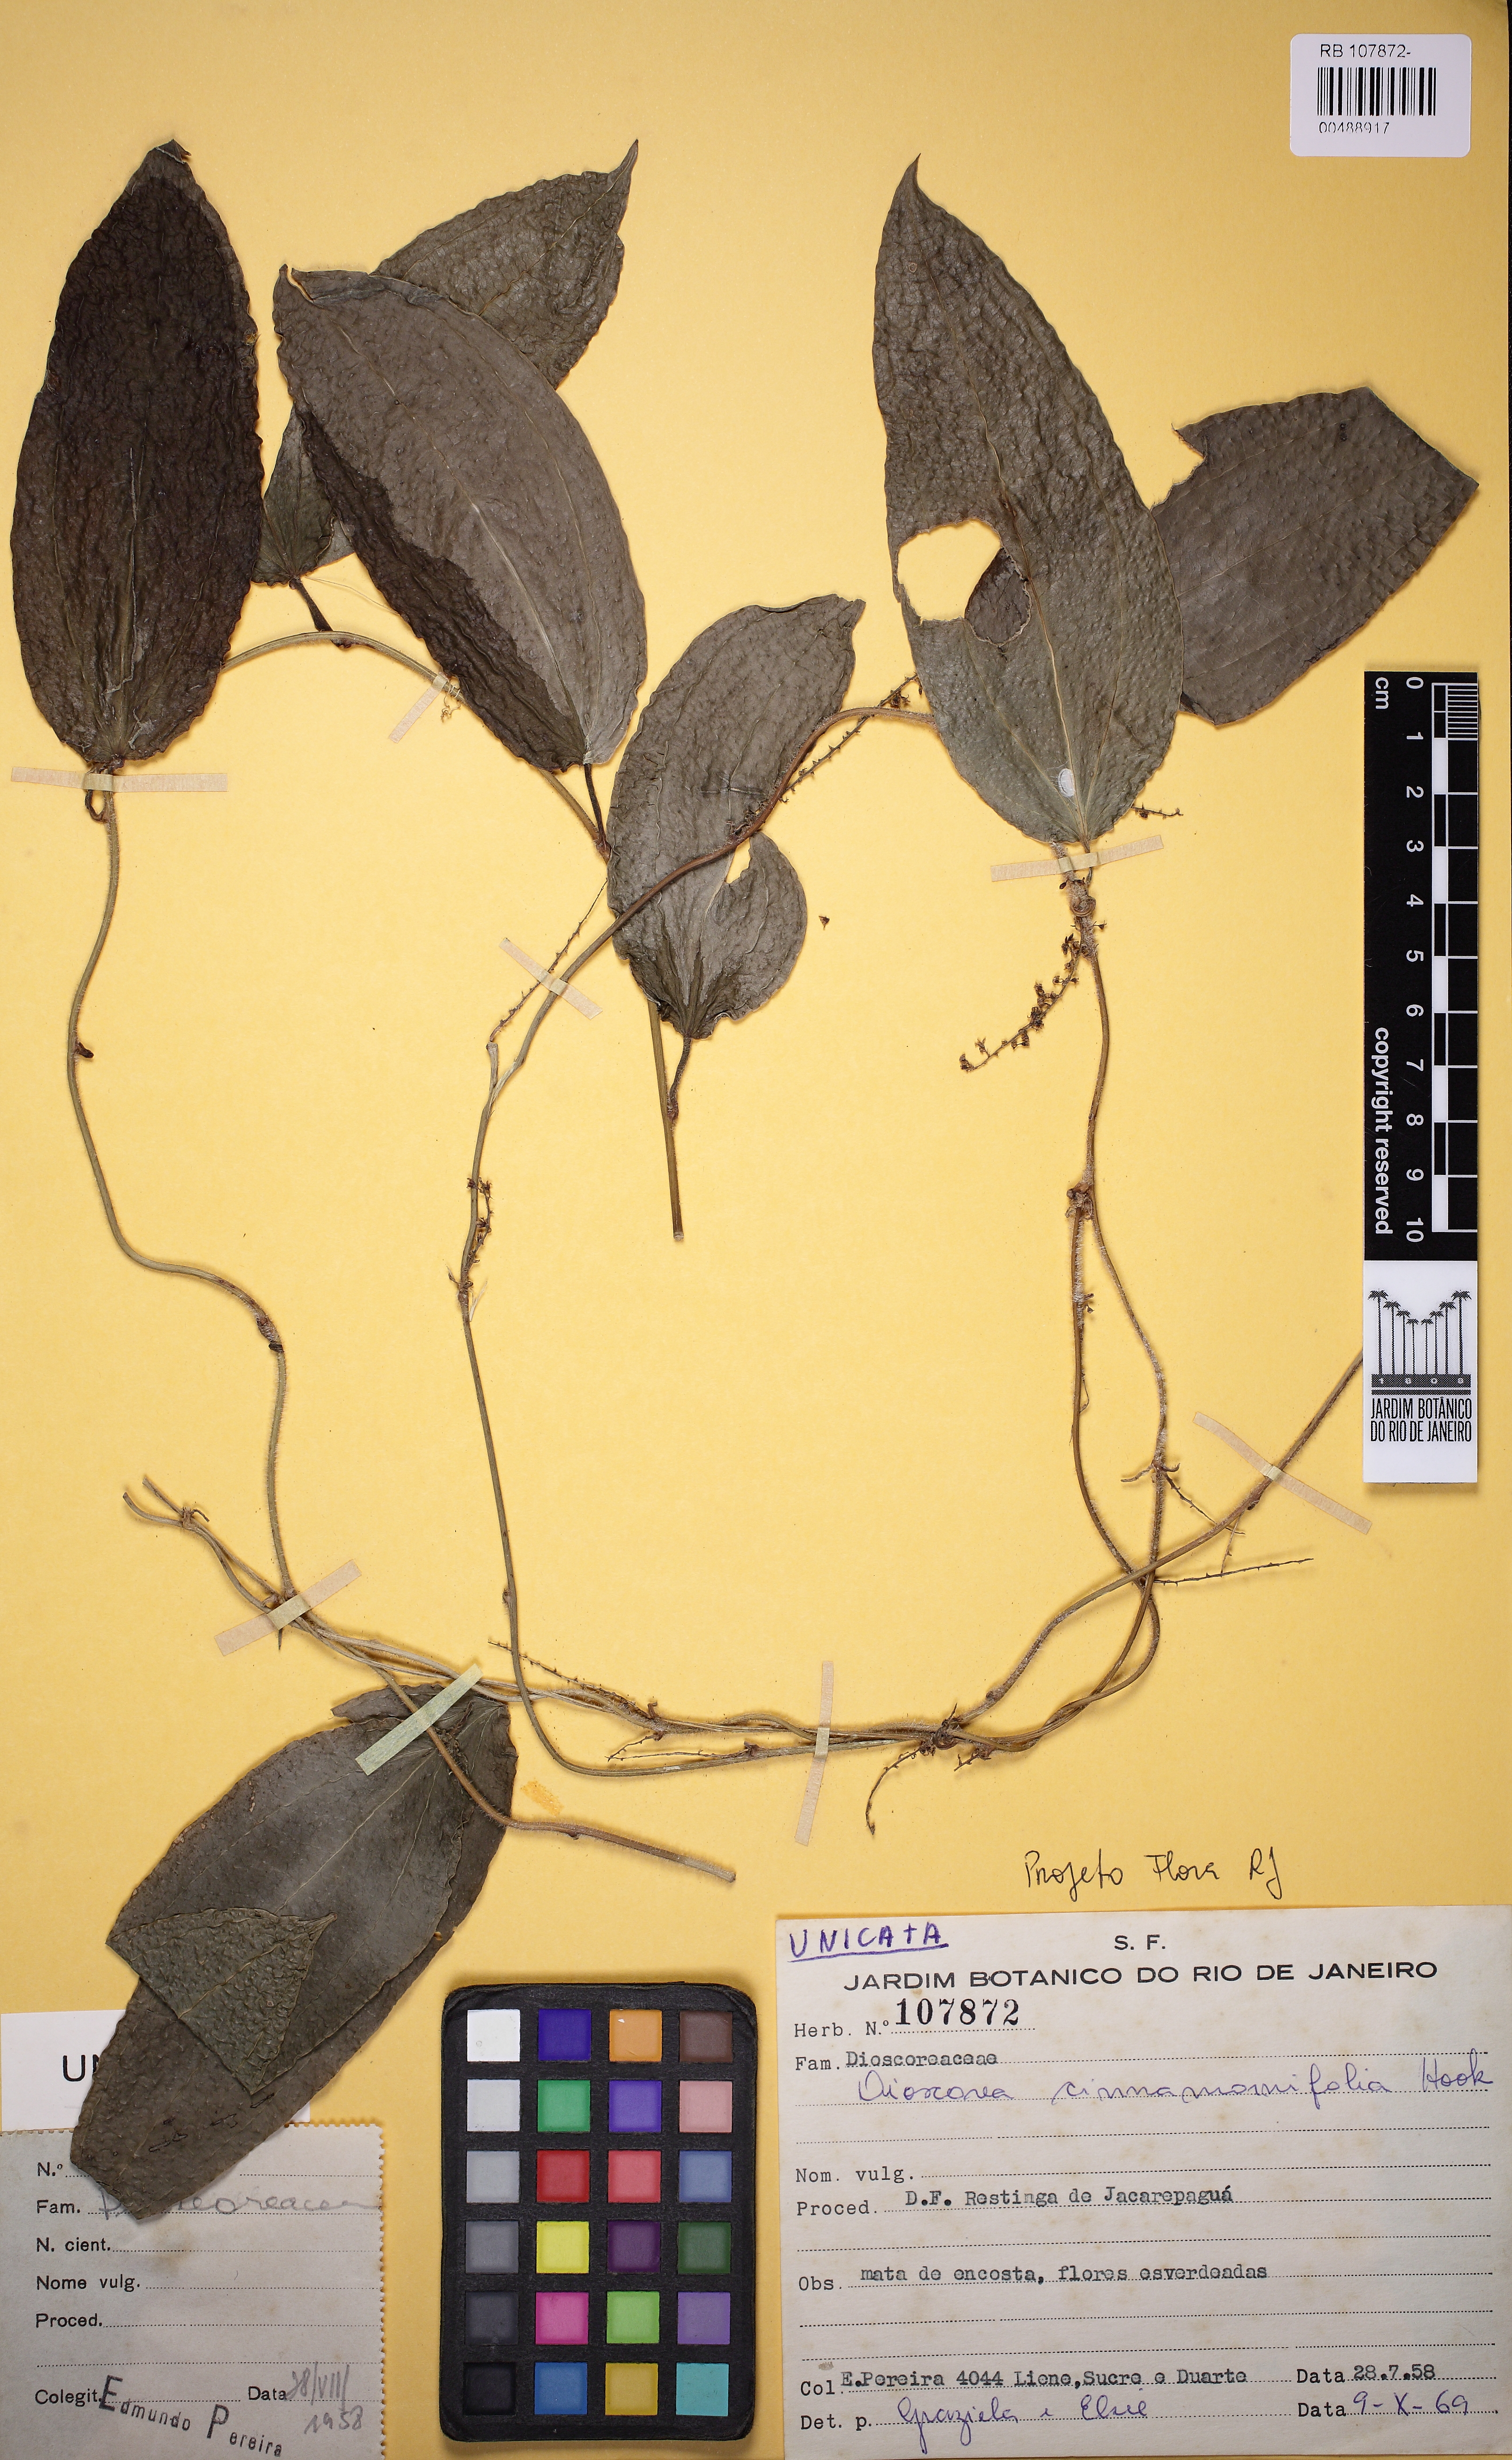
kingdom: Plantae
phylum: Tracheophyta
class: Liliopsida
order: Dioscoreales
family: Dioscoreaceae
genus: Dioscorea
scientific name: Dioscorea cinnamomifolia
